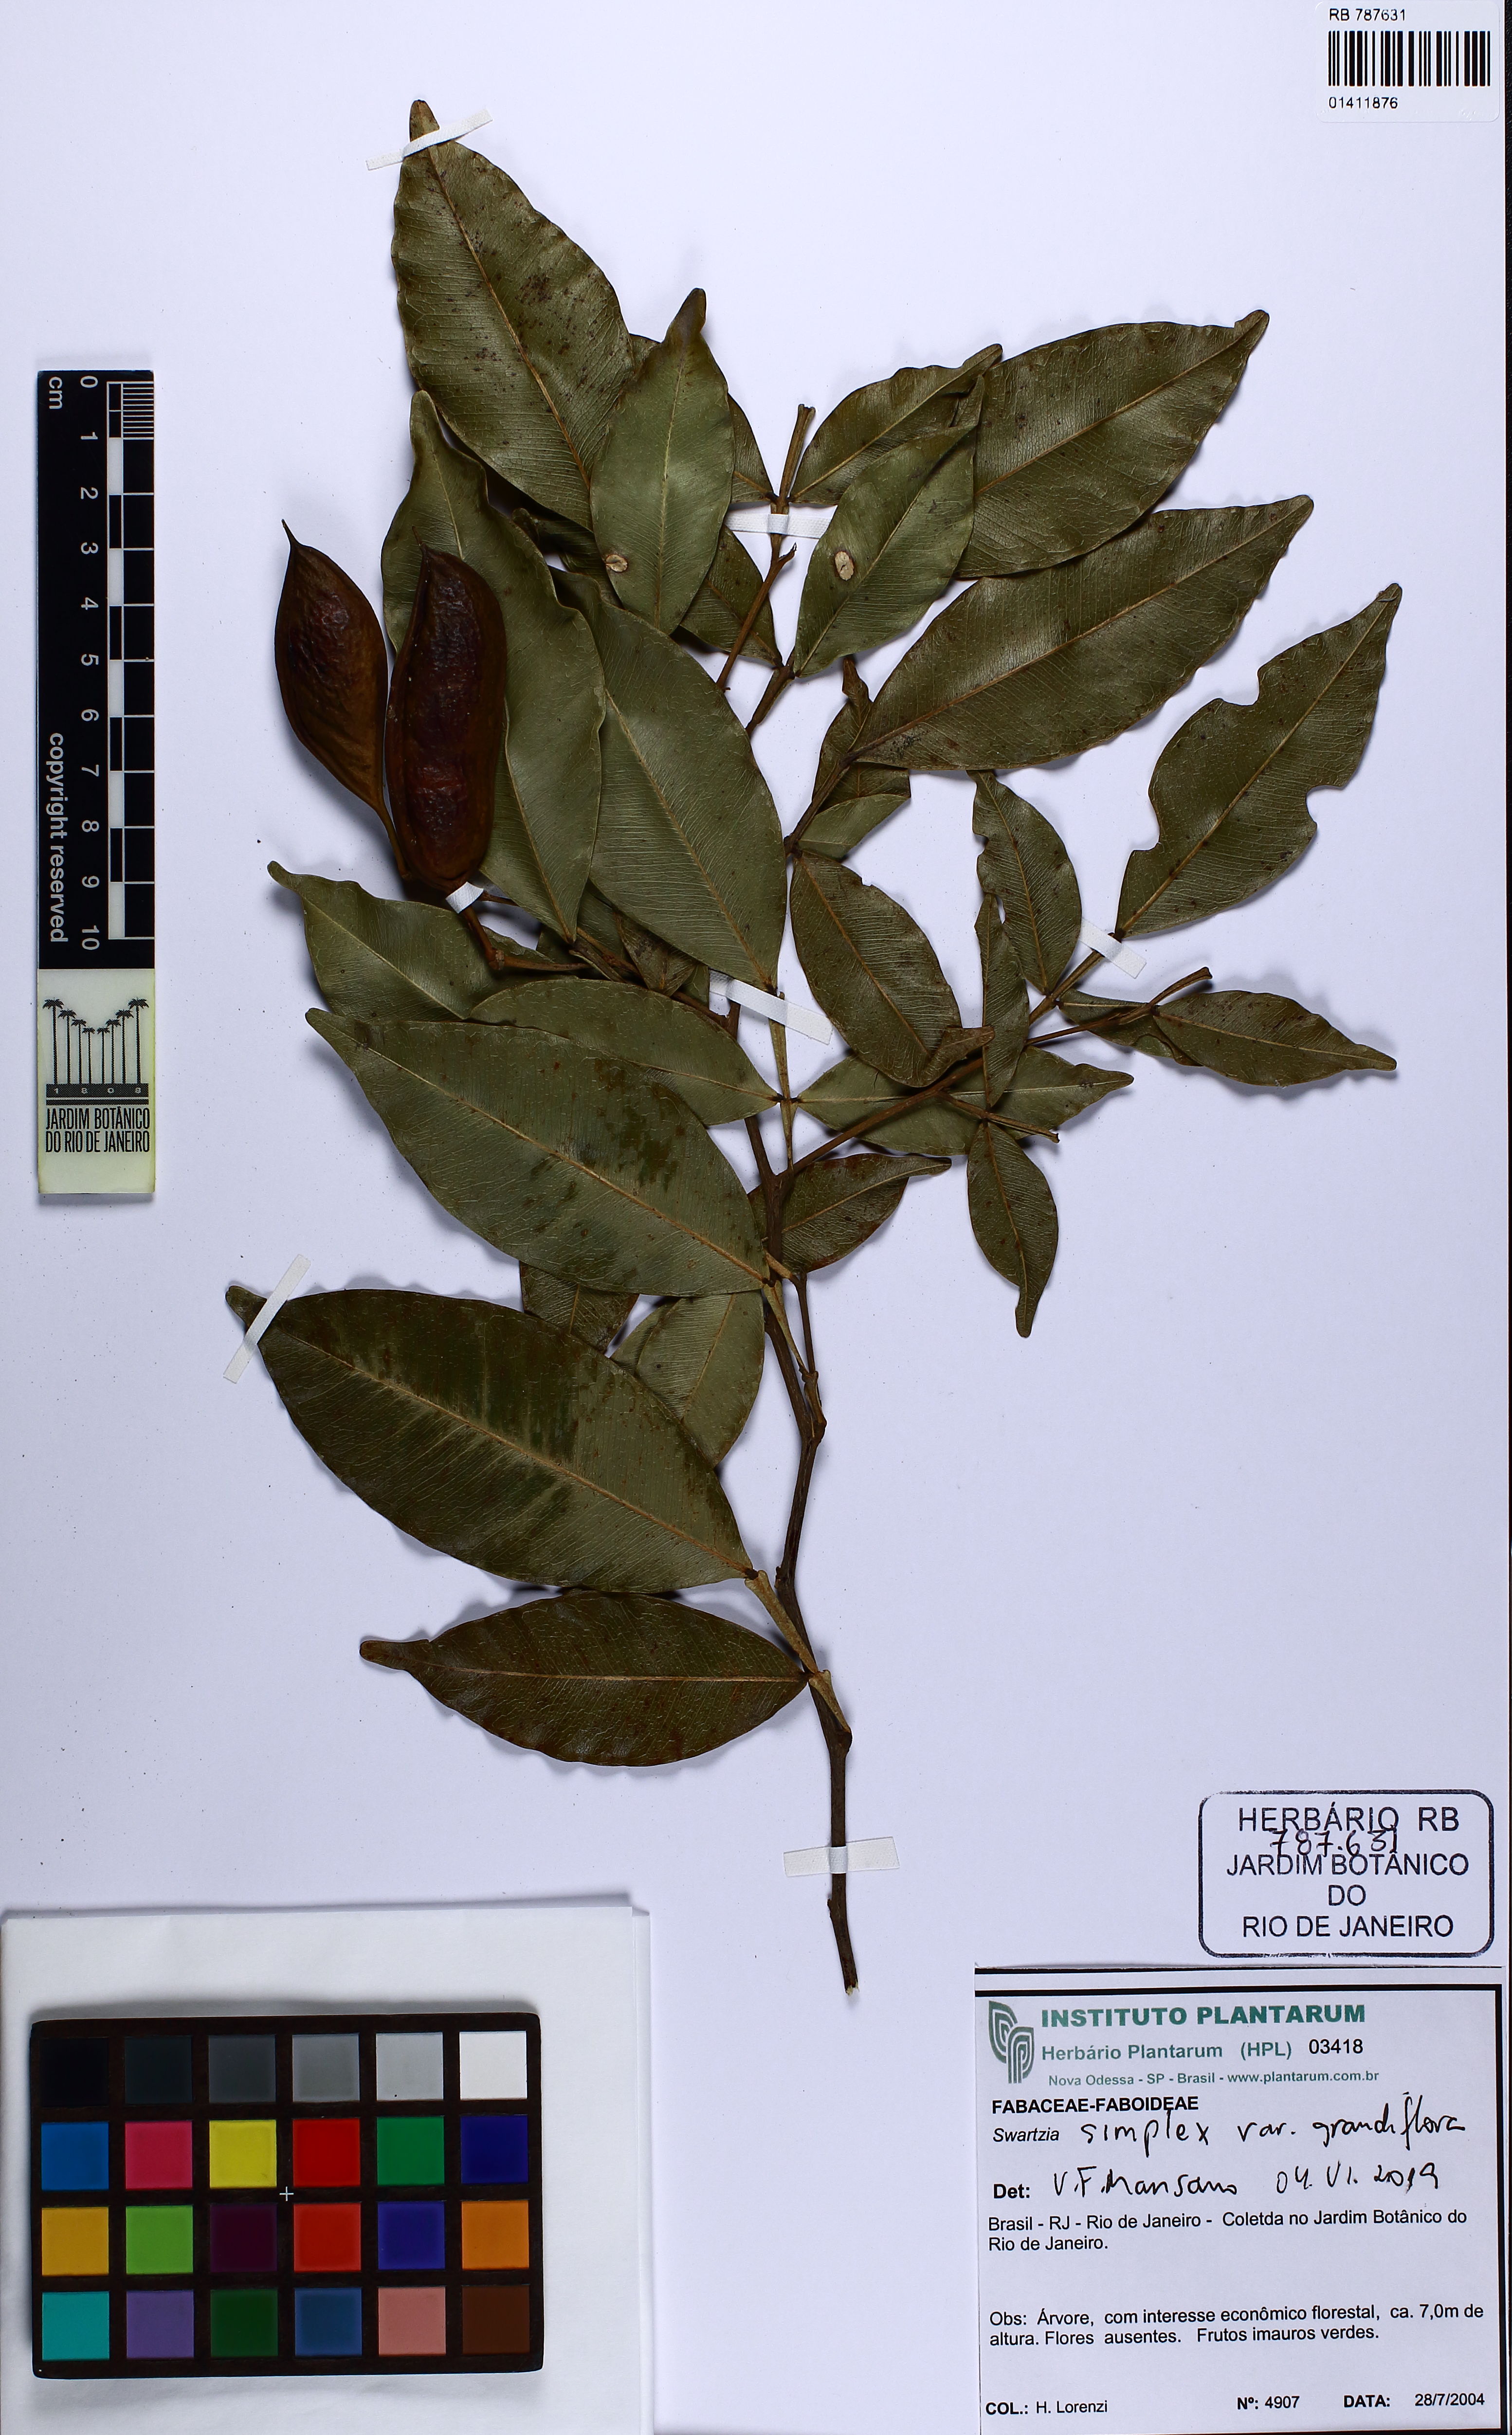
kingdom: Plantae
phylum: Tracheophyta
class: Magnoliopsida
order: Fabales
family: Fabaceae
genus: Swartzia
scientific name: Swartzia simplex
